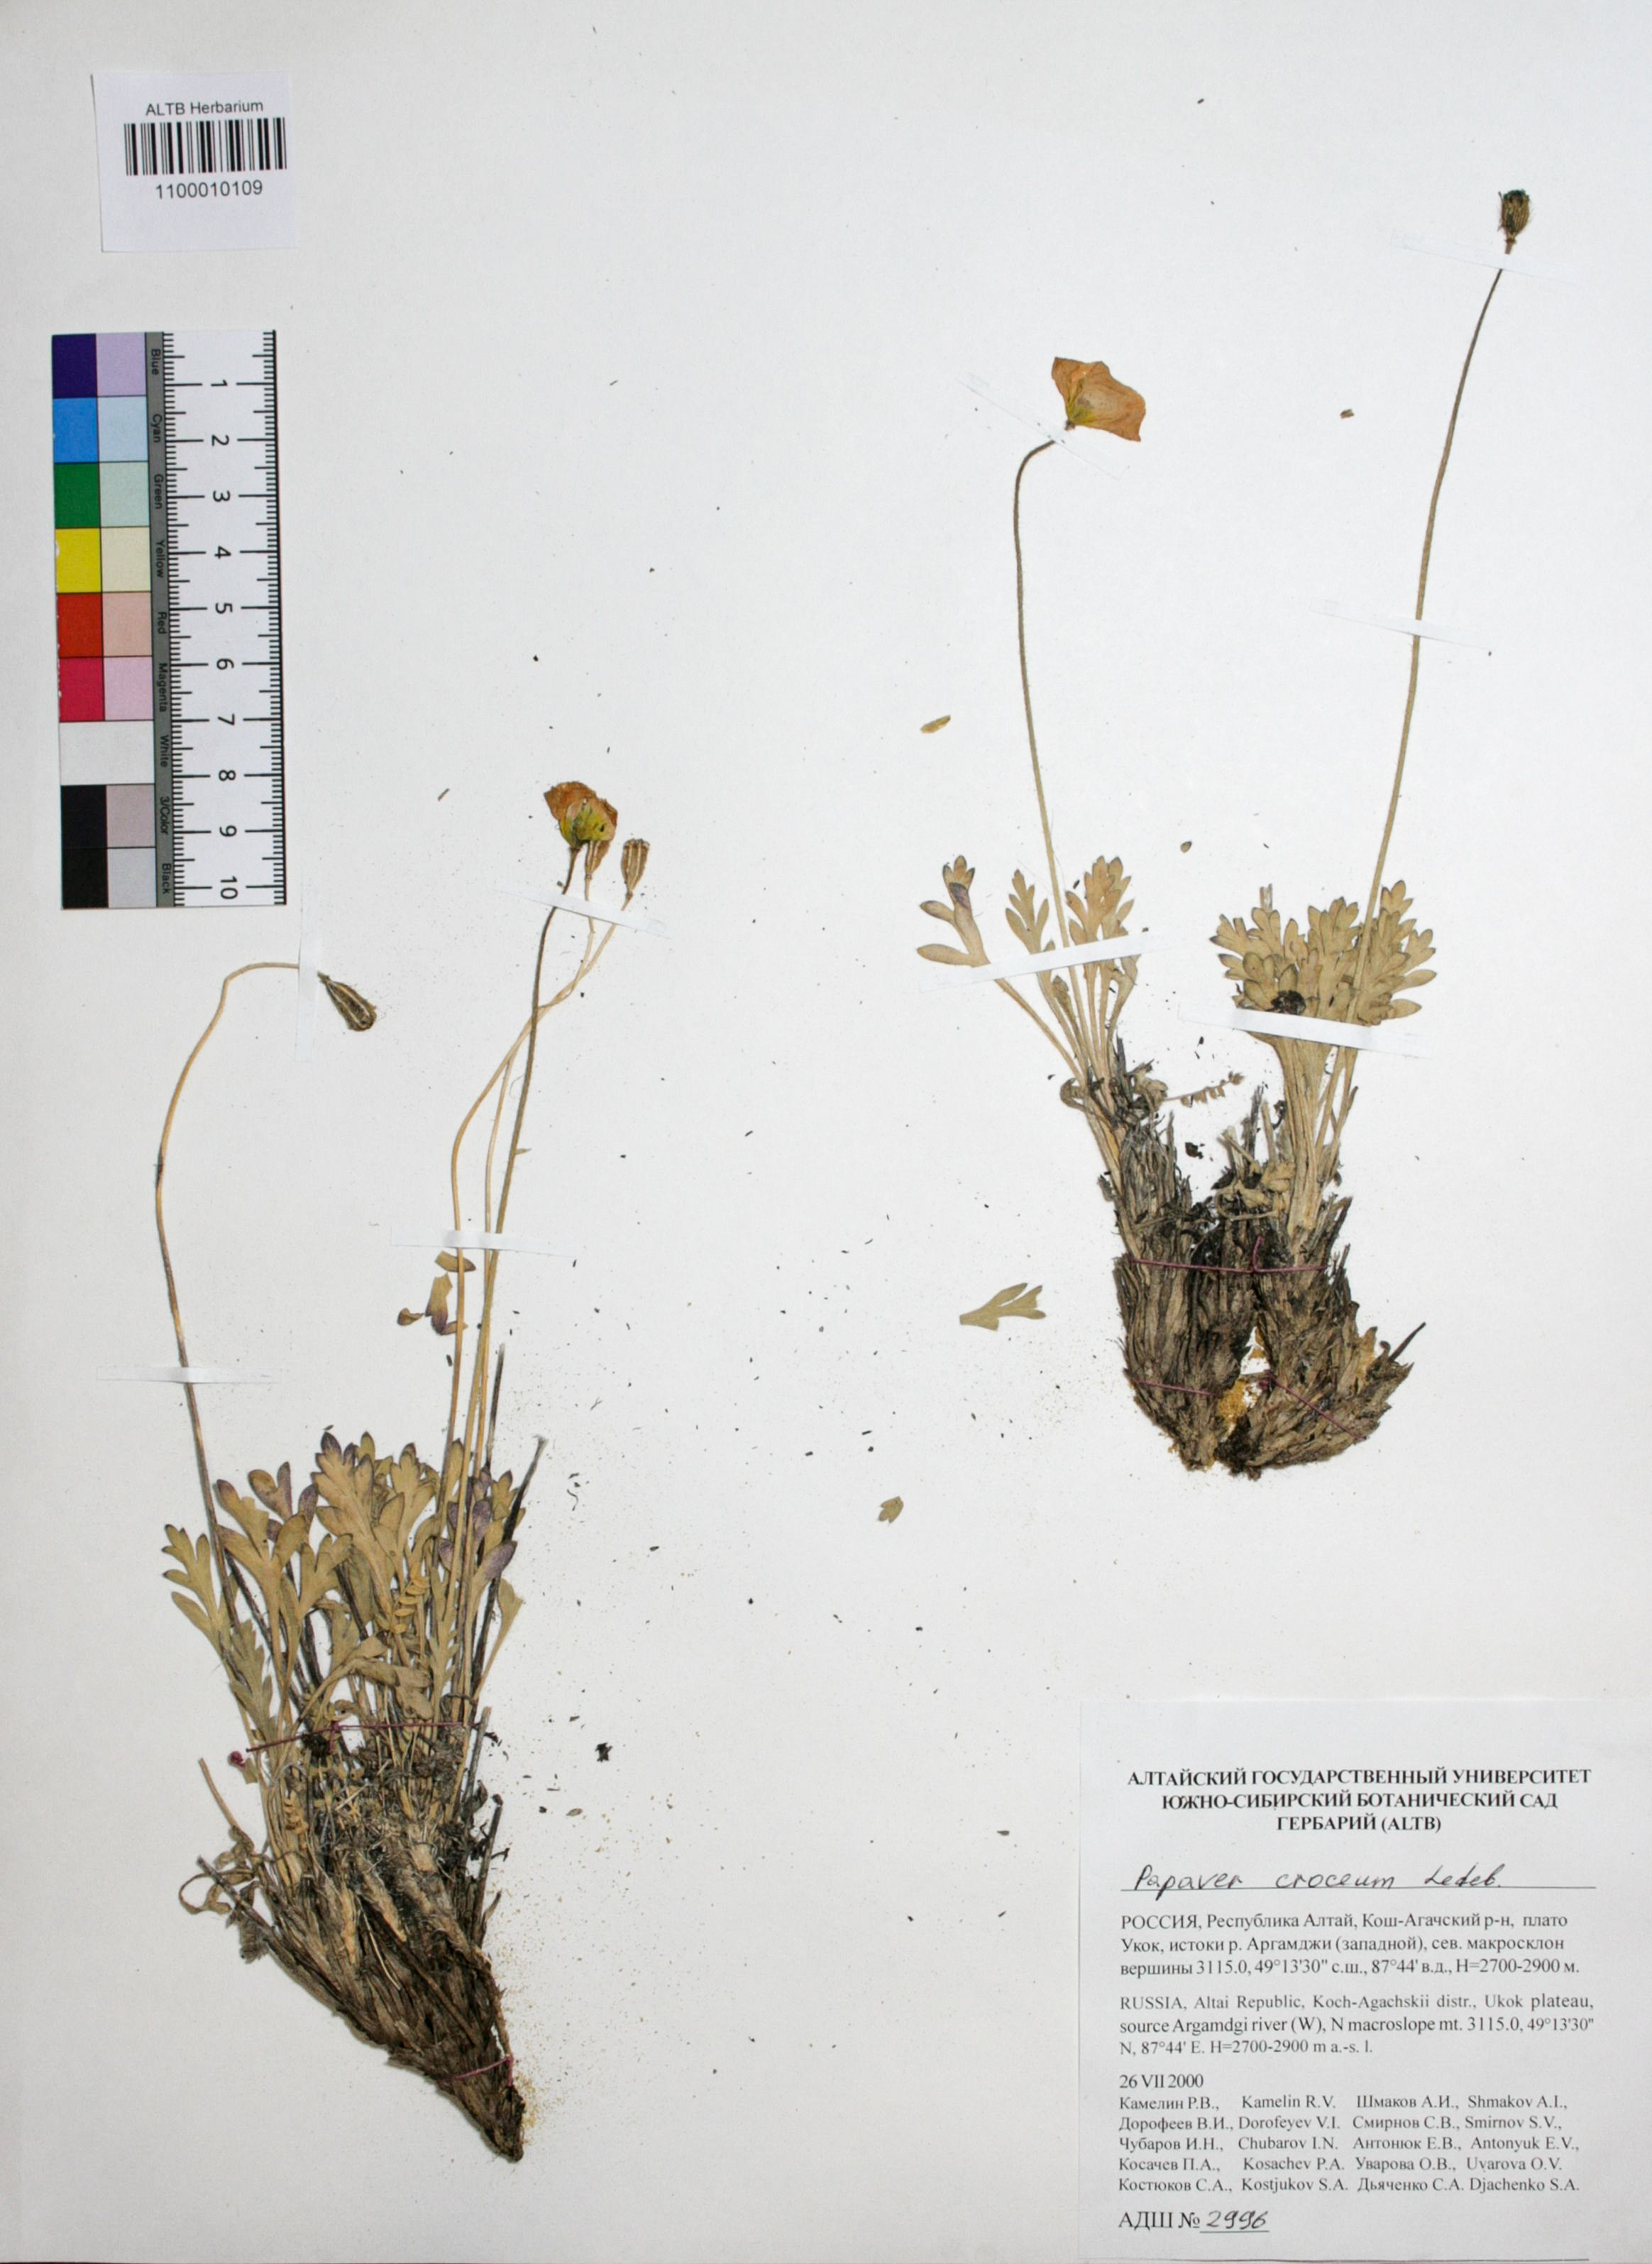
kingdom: Plantae
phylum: Tracheophyta
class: Magnoliopsida
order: Ranunculales
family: Papaveraceae
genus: Papaver
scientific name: Papaver croceum
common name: Siberian poppy
